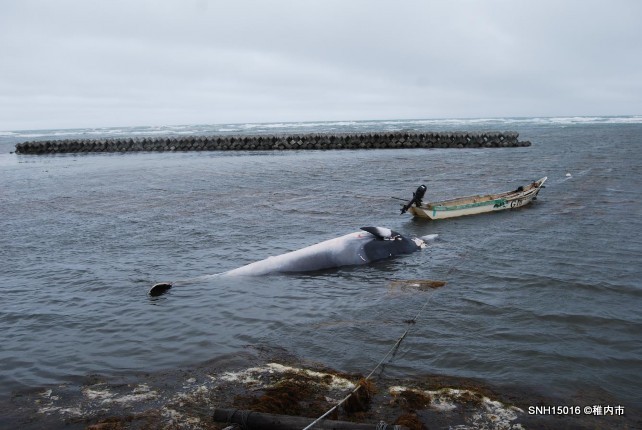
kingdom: Animalia
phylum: Chordata
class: Mammalia
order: Cetacea
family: Balaenopteridae
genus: Balaenoptera
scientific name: Balaenoptera acutorostrata
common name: Minke whale
